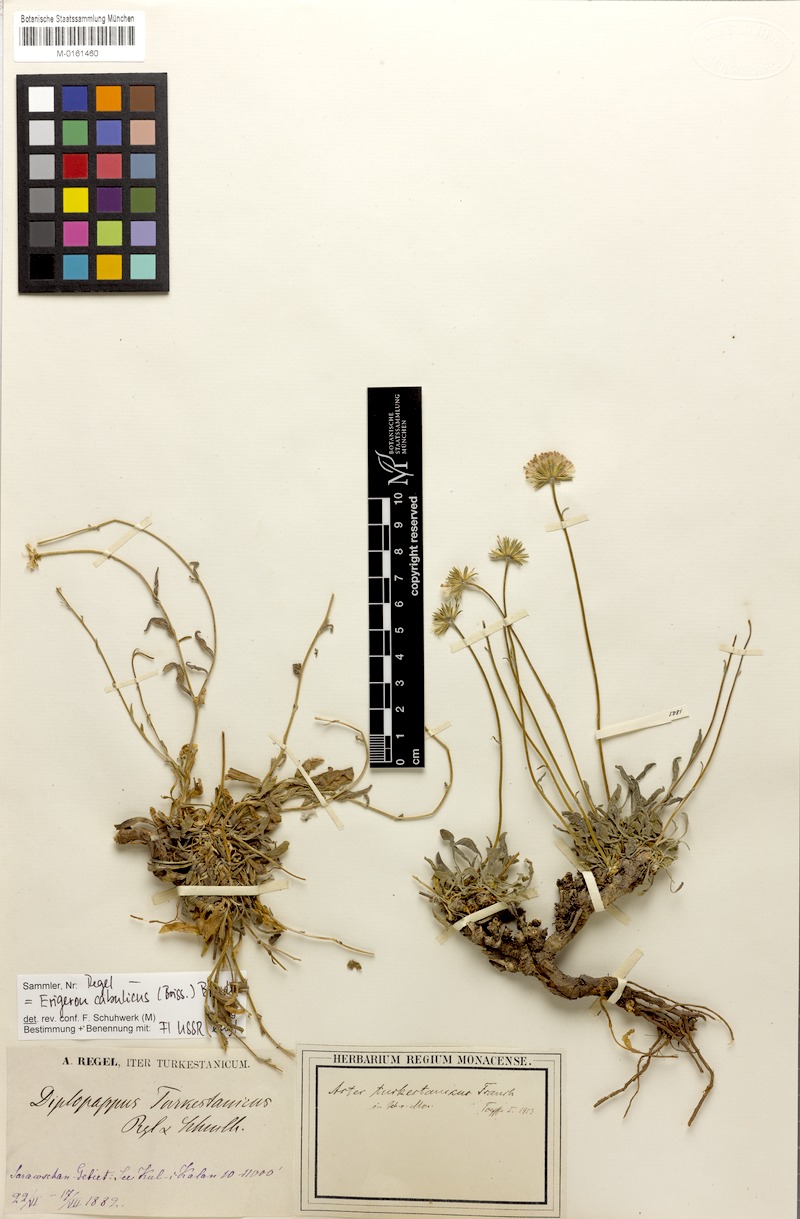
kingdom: Plantae
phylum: Tracheophyta
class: Magnoliopsida
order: Asterales
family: Asteraceae
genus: Psychrogeton
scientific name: Psychrogeton cabulicus
